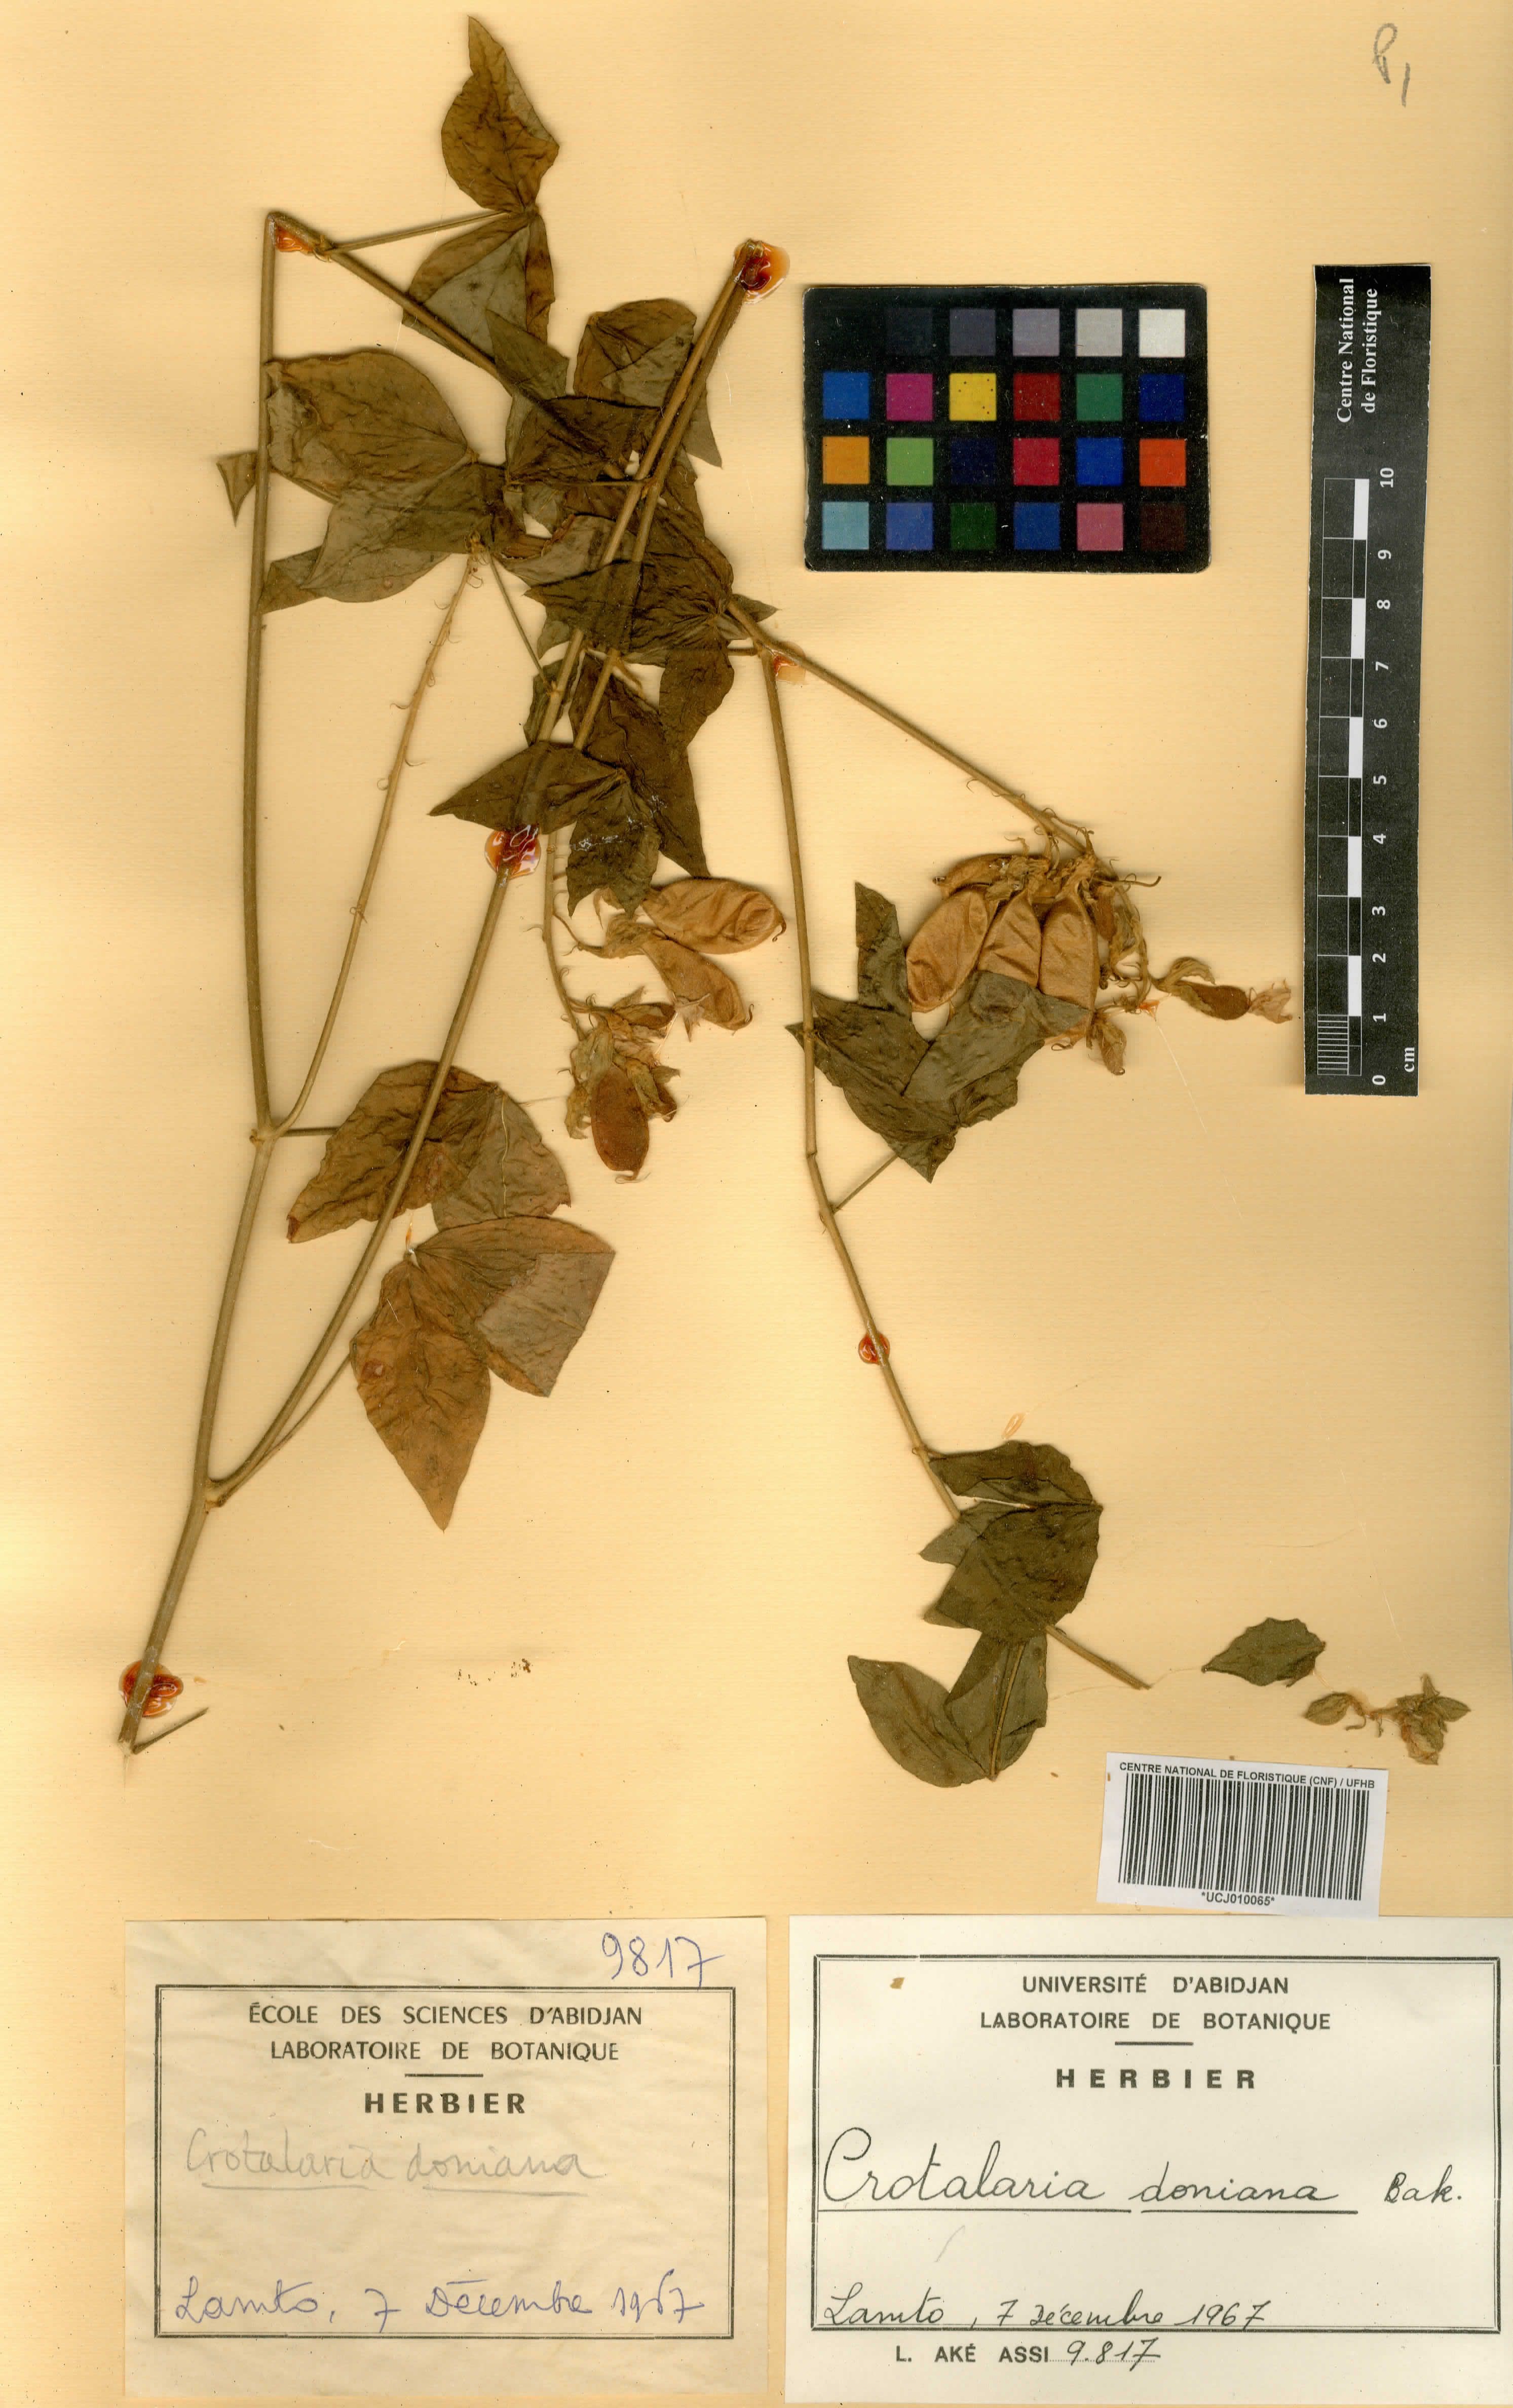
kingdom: Plantae
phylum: Tracheophyta
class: Magnoliopsida
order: Fabales
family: Fabaceae
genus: Crotalaria
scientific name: Crotalaria doniana
